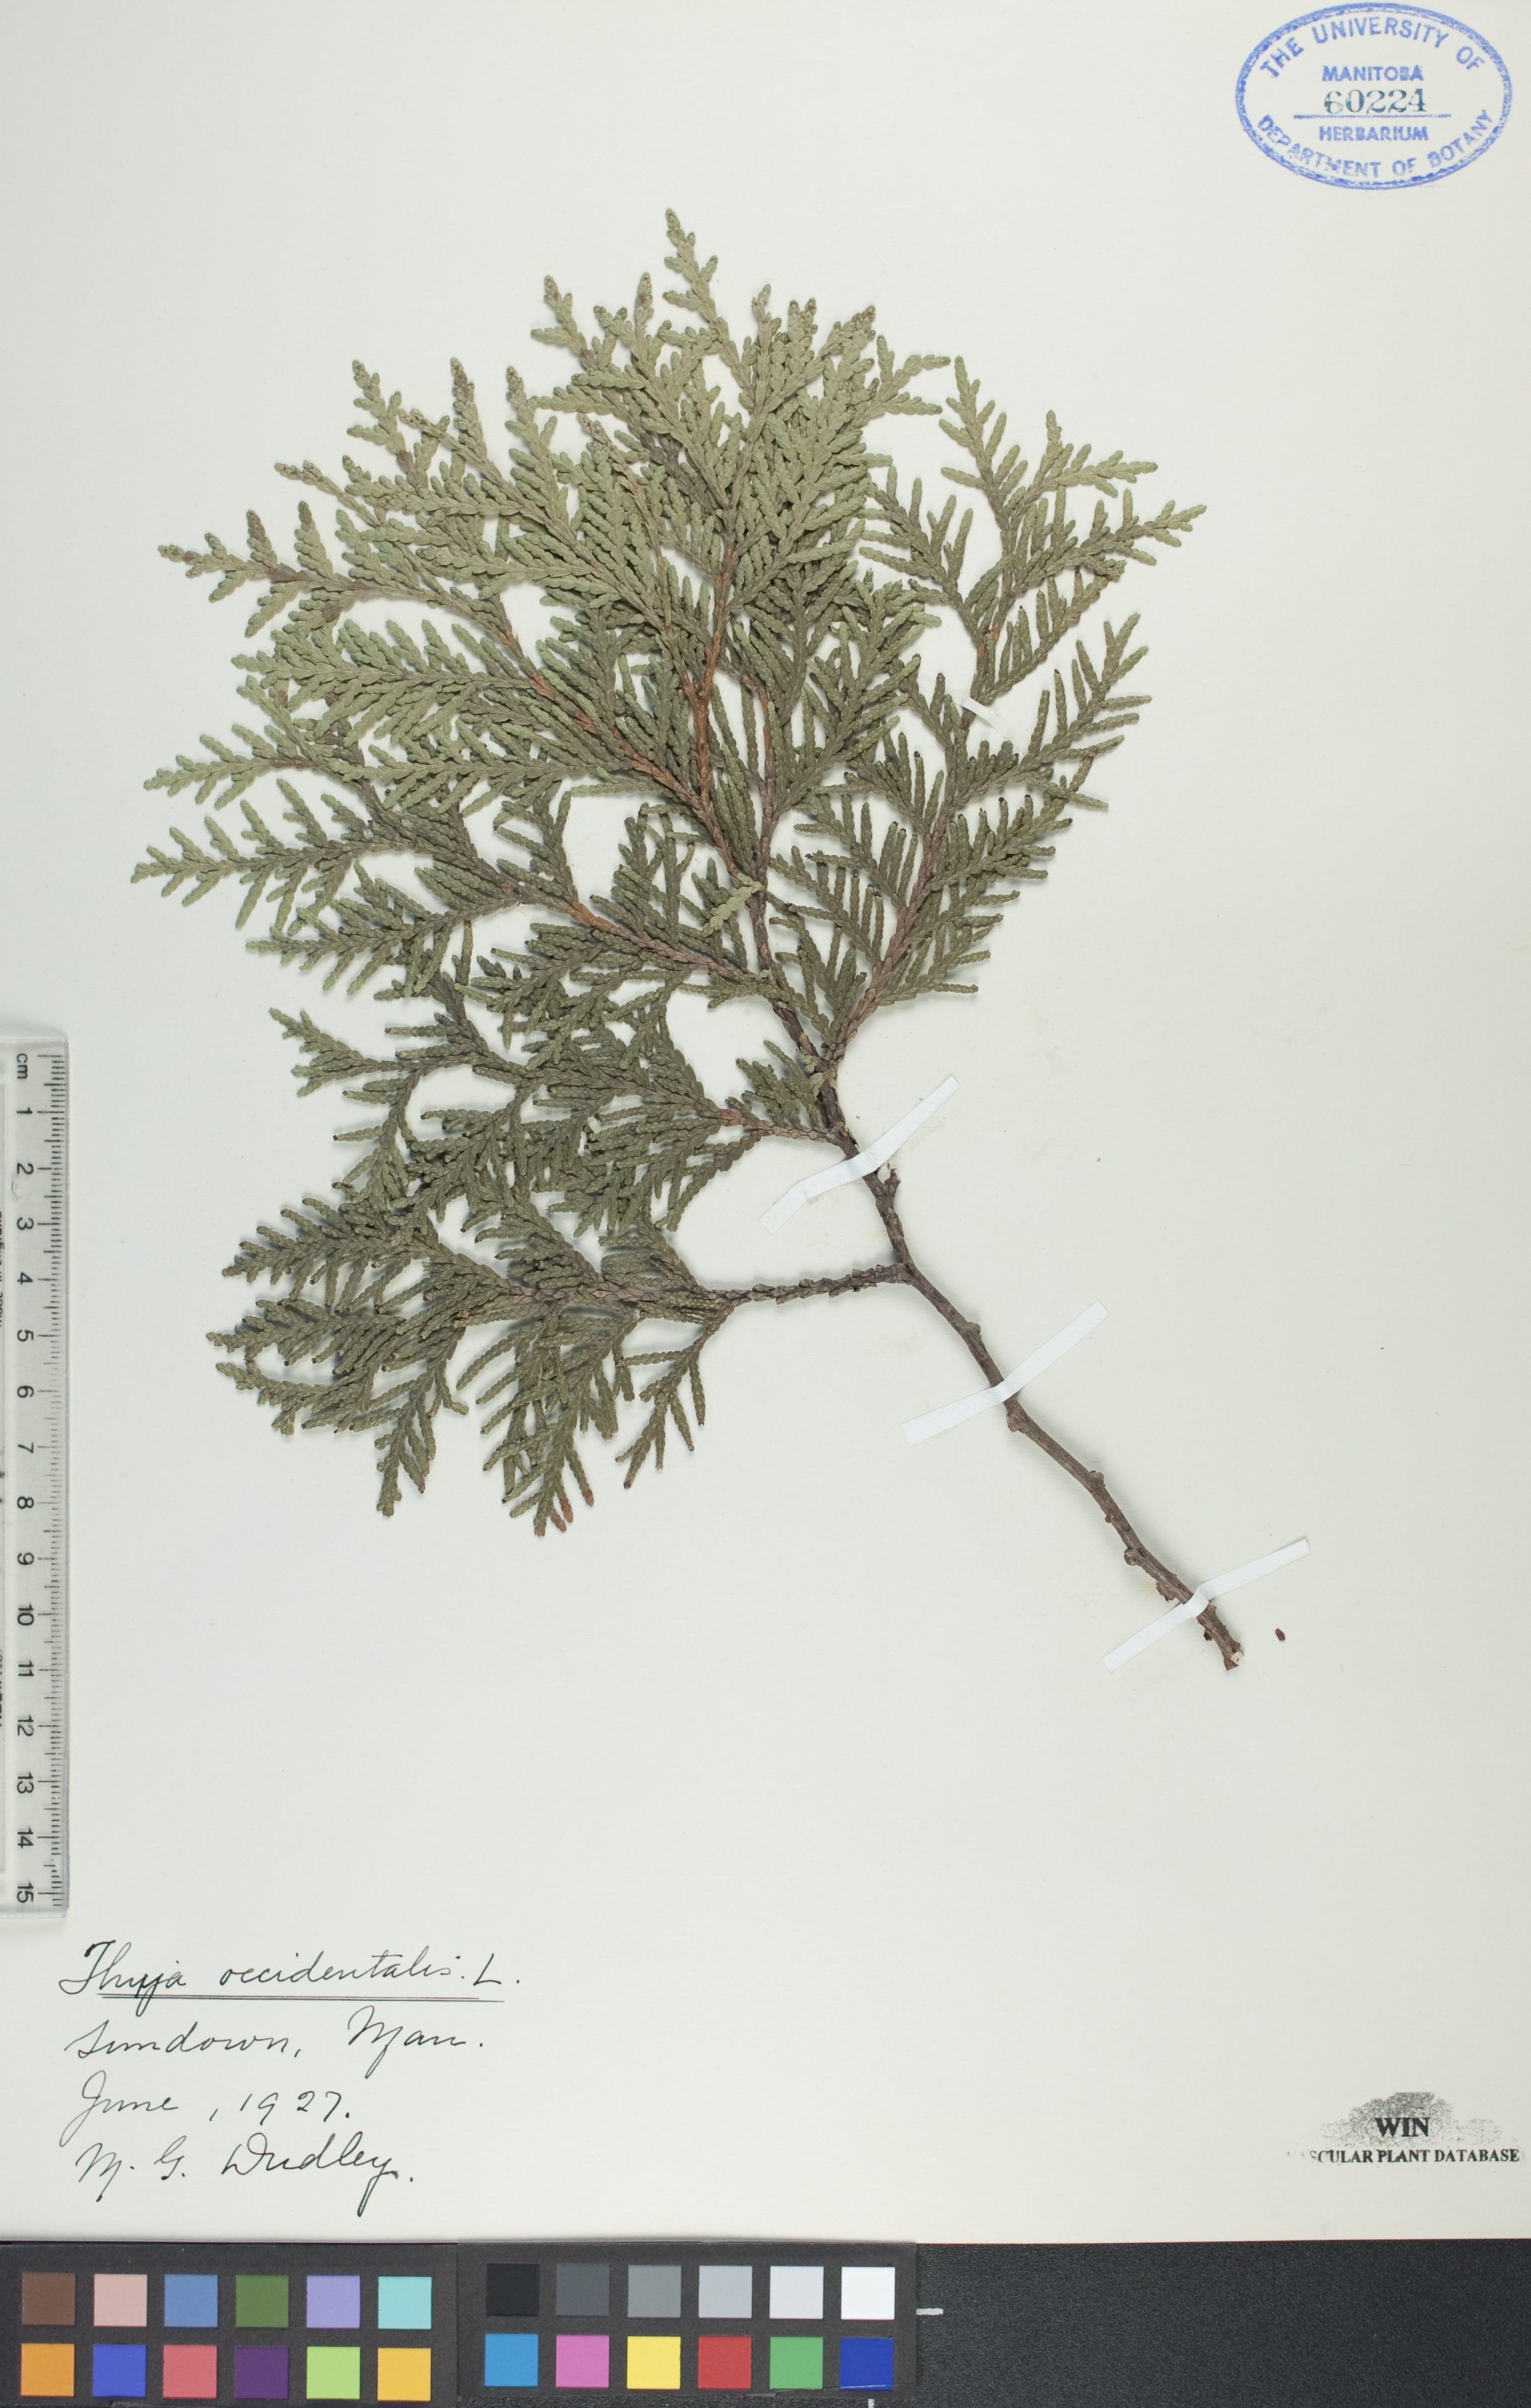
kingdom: Plantae
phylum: Tracheophyta
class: Pinopsida
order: Pinales
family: Cupressaceae
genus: Thuja
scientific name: Thuja occidentalis
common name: Northern white-cedar
